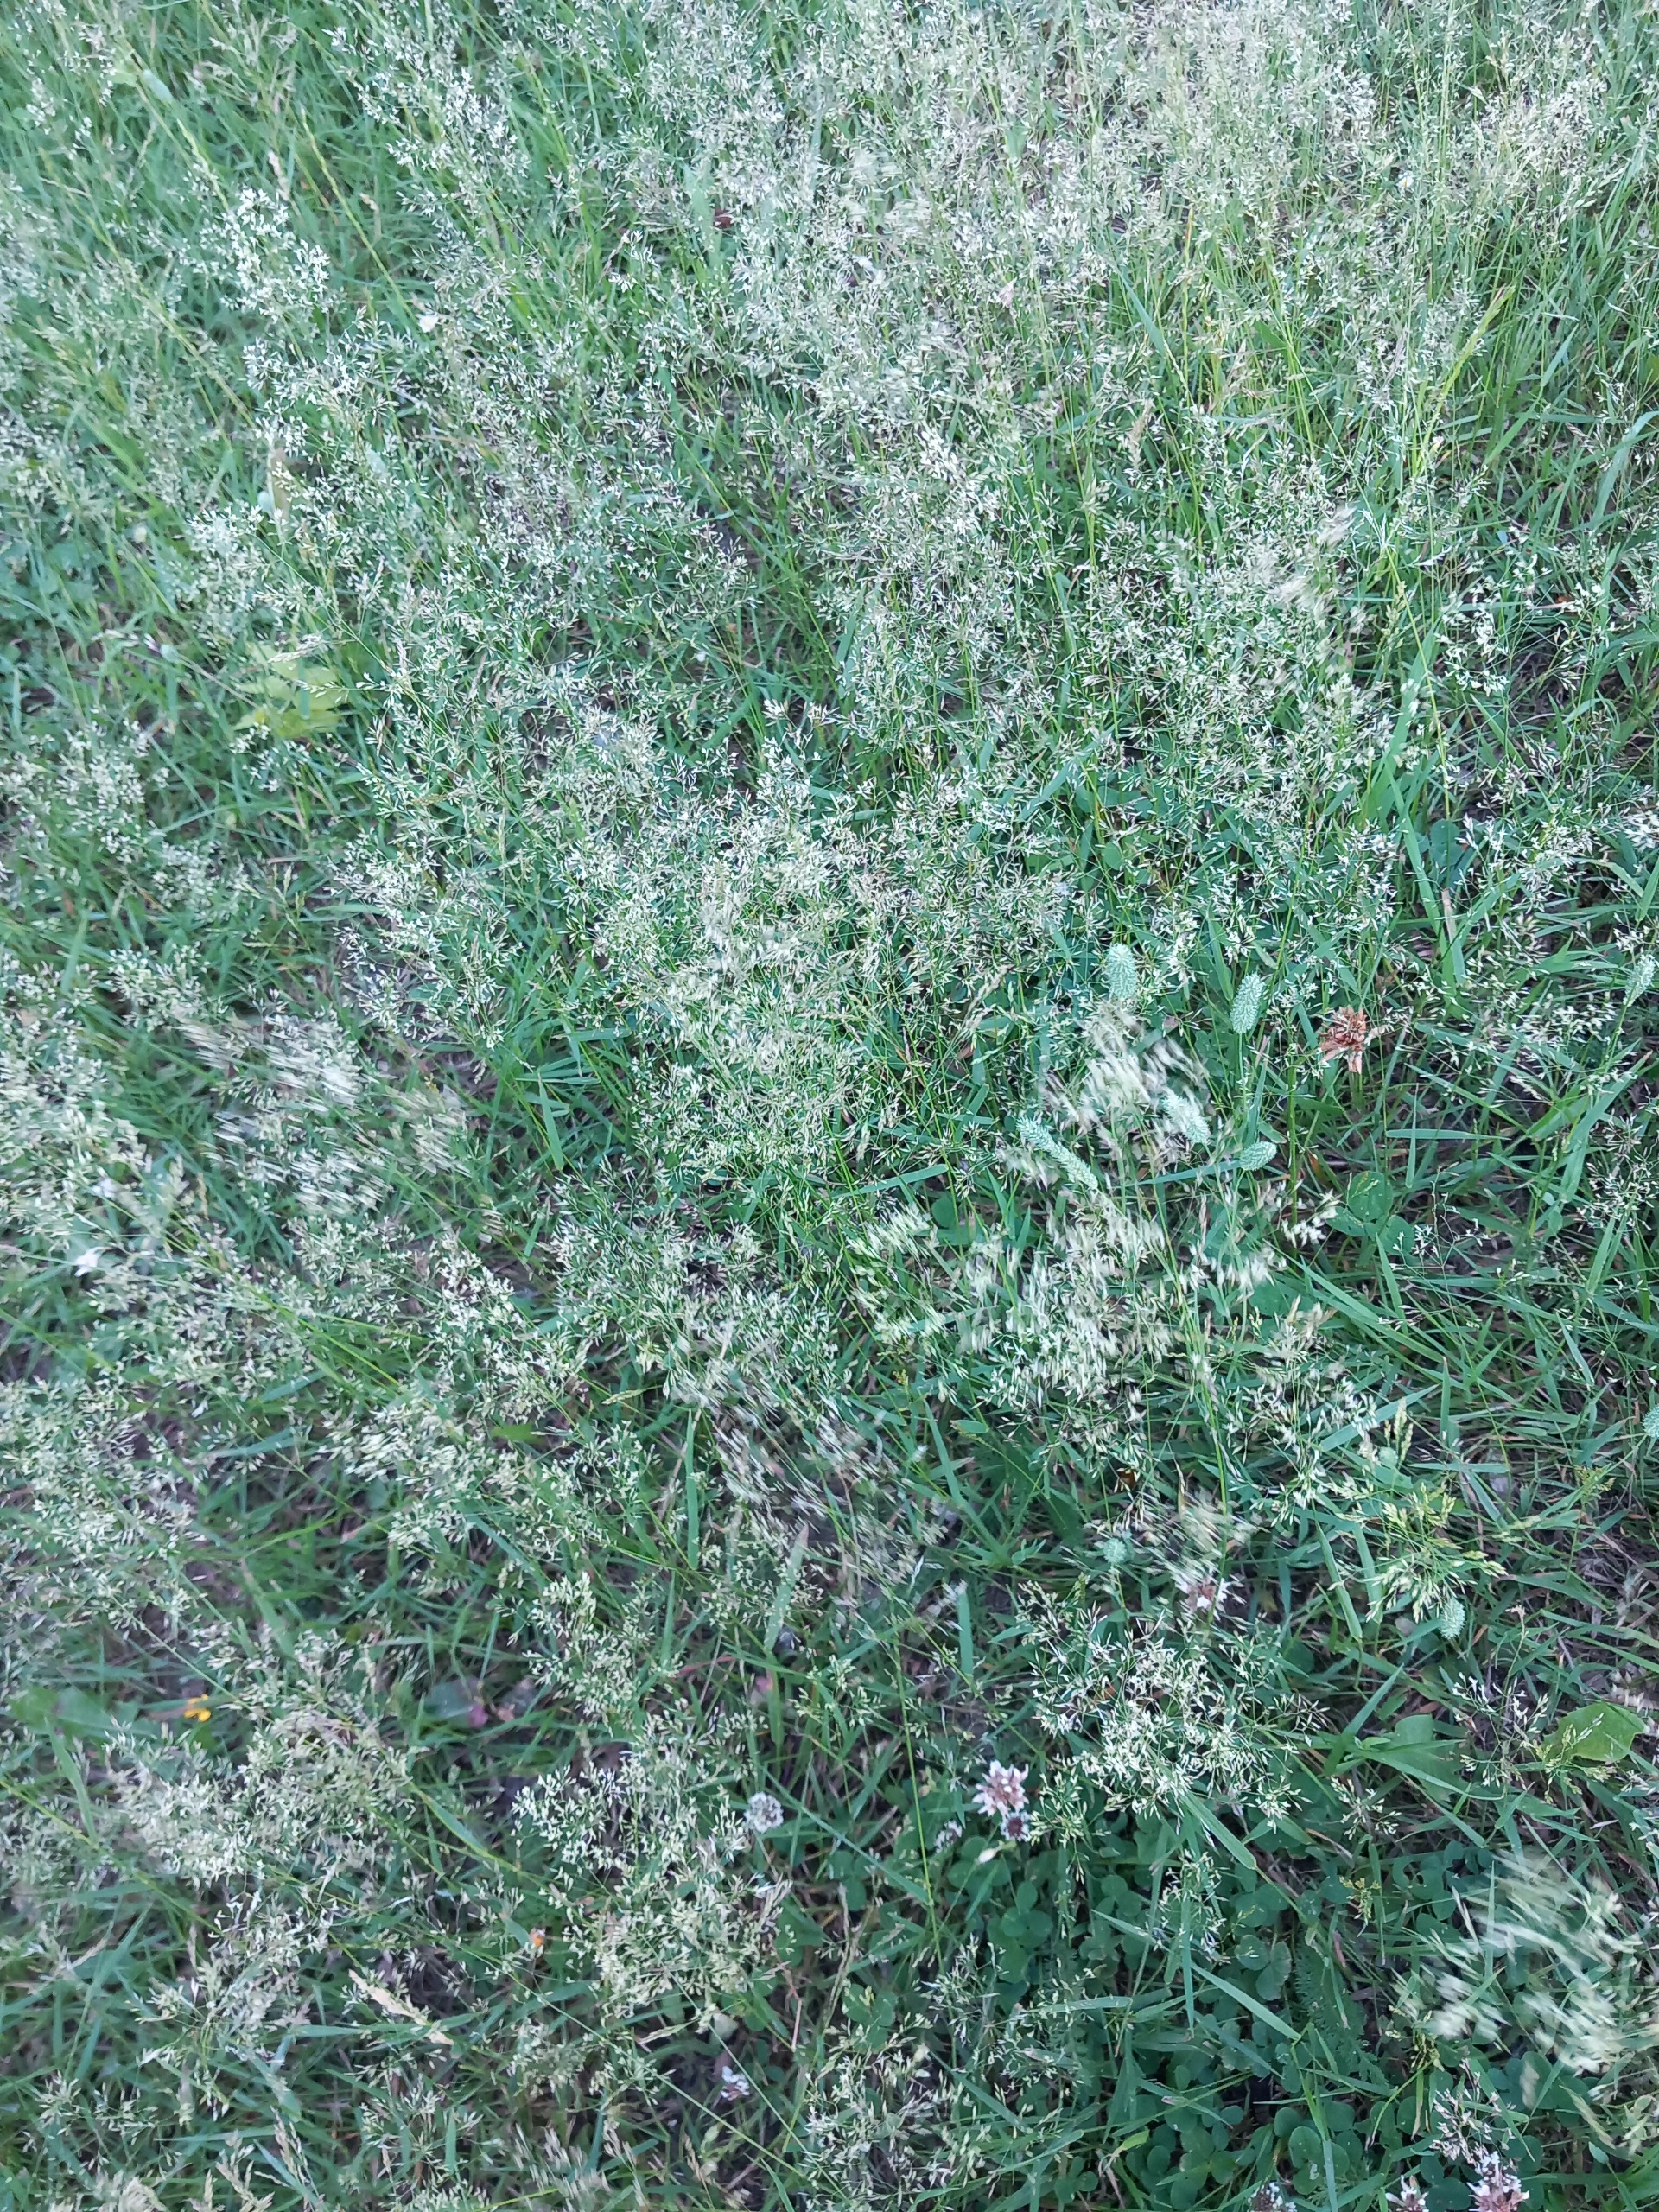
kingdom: Plantae
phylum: Tracheophyta
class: Liliopsida
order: Poales
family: Poaceae
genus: Agrostis
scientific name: Agrostis capillaris
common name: Almindelig hvene
